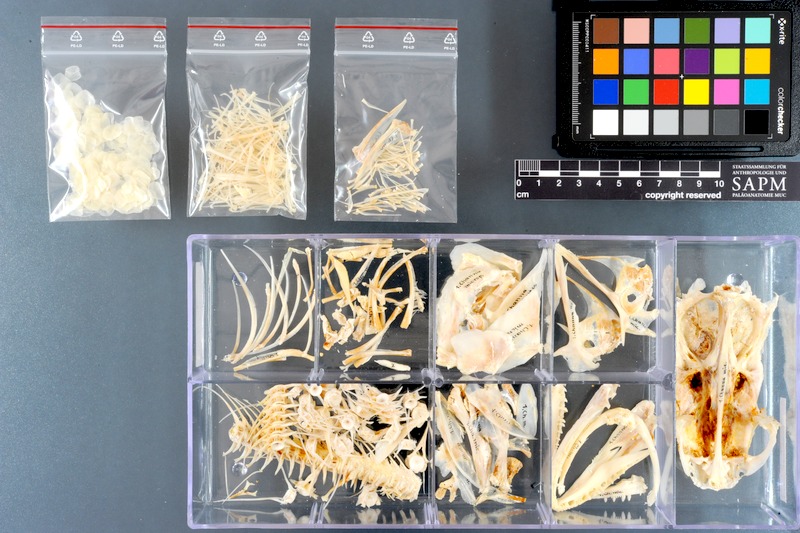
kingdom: Animalia
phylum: Chordata
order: Perciformes
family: Channidae
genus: Channa
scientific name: Channa micropeltes
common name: Giant snakehead
